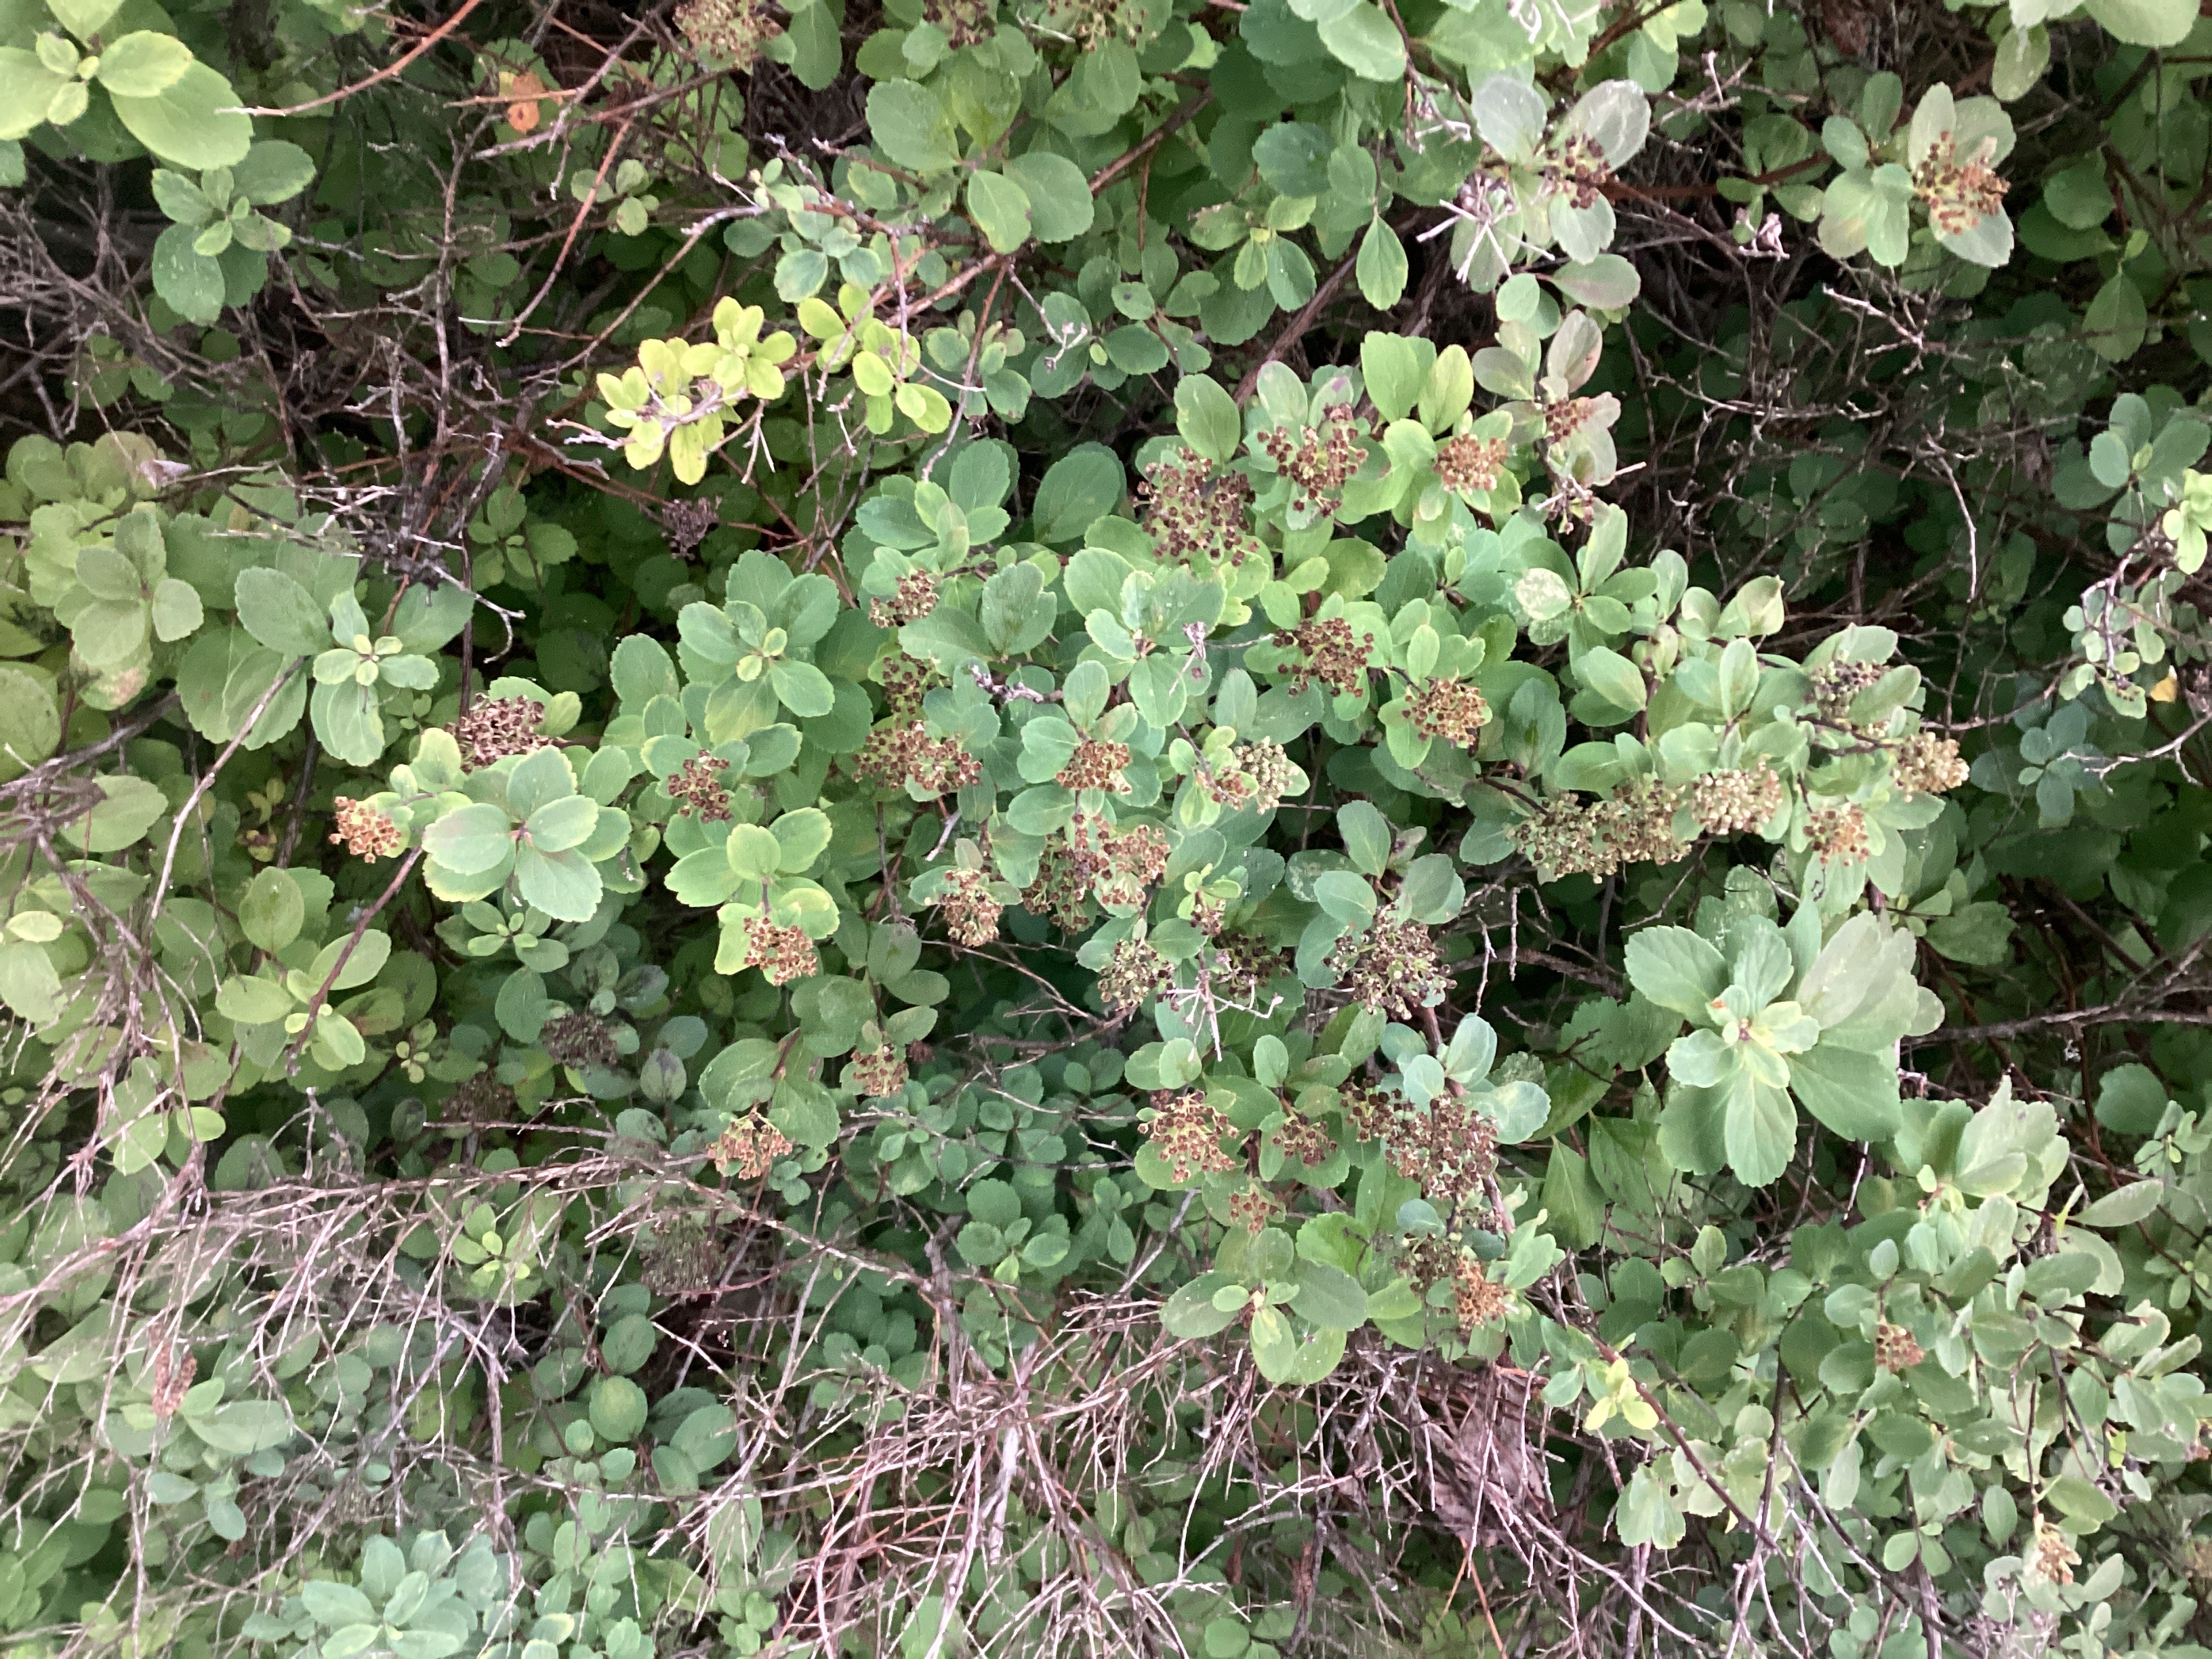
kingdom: Plantae
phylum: Tracheophyta
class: Magnoliopsida
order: Rosales
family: Rosaceae
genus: Spiraea
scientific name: Spiraea betulifolia
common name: bjørkebladspirea
